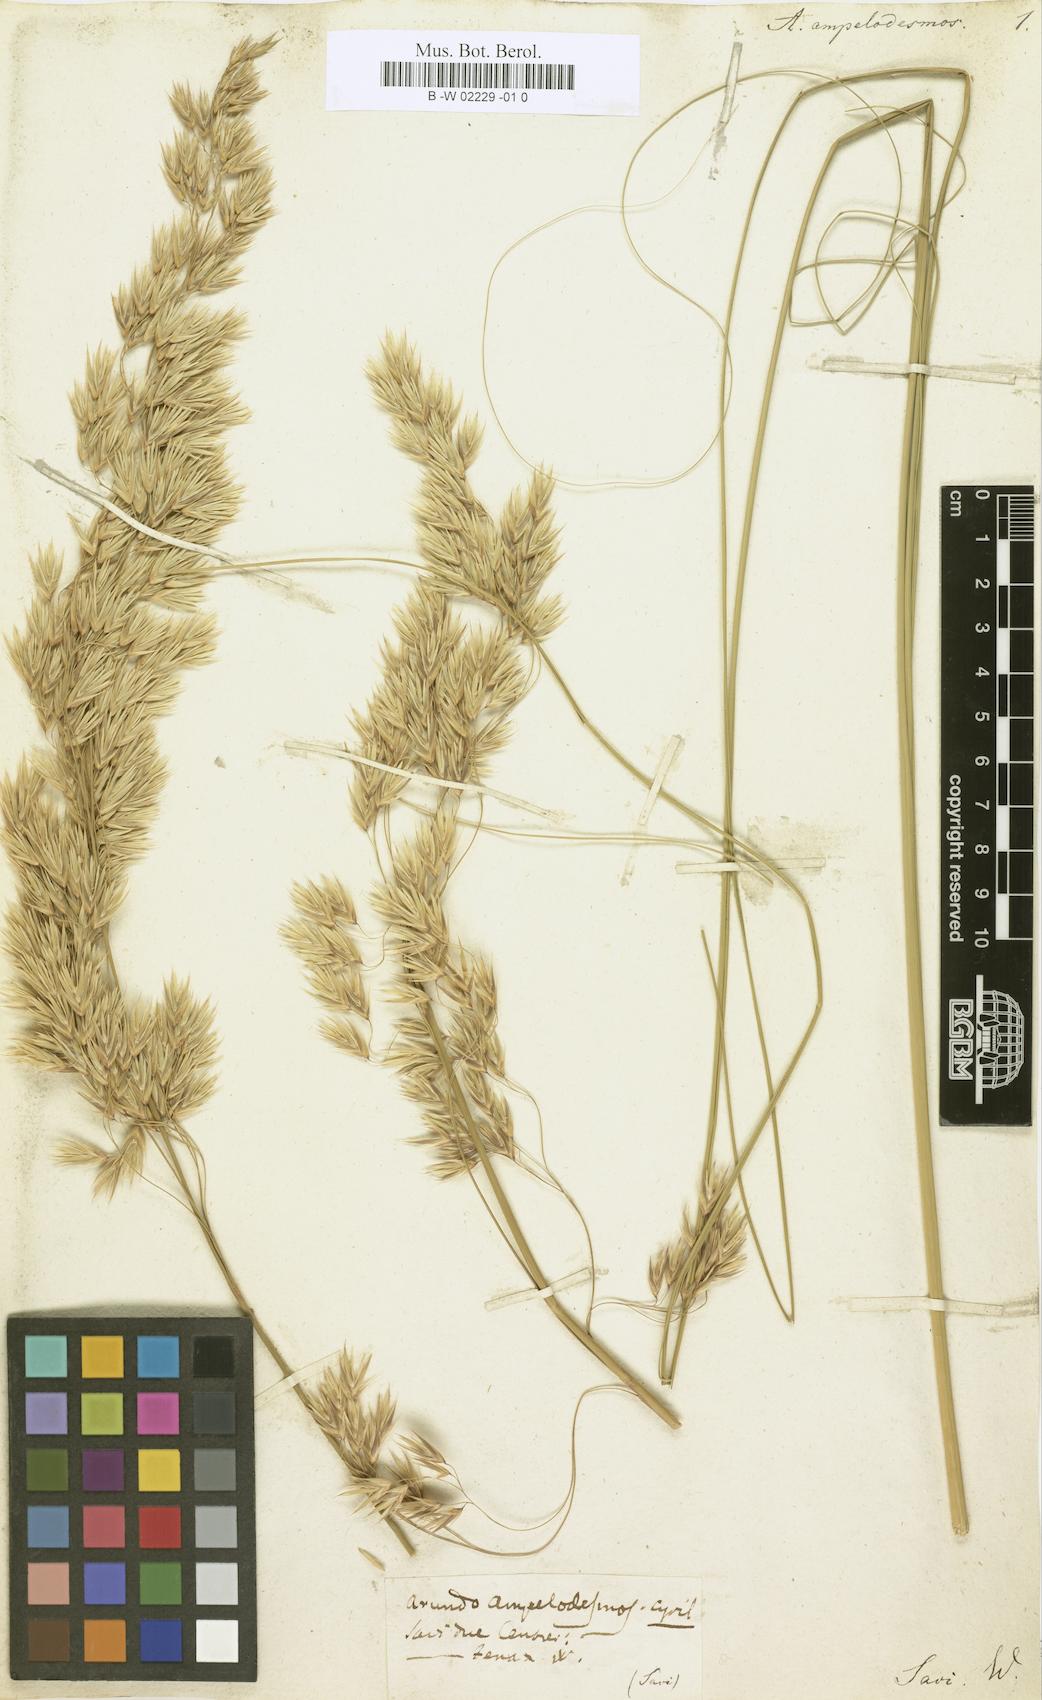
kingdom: Plantae
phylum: Tracheophyta
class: Liliopsida
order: Poales
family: Poaceae
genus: Ampelodesmos
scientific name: Ampelodesmos mauritanicus
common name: Mauritanian grass
